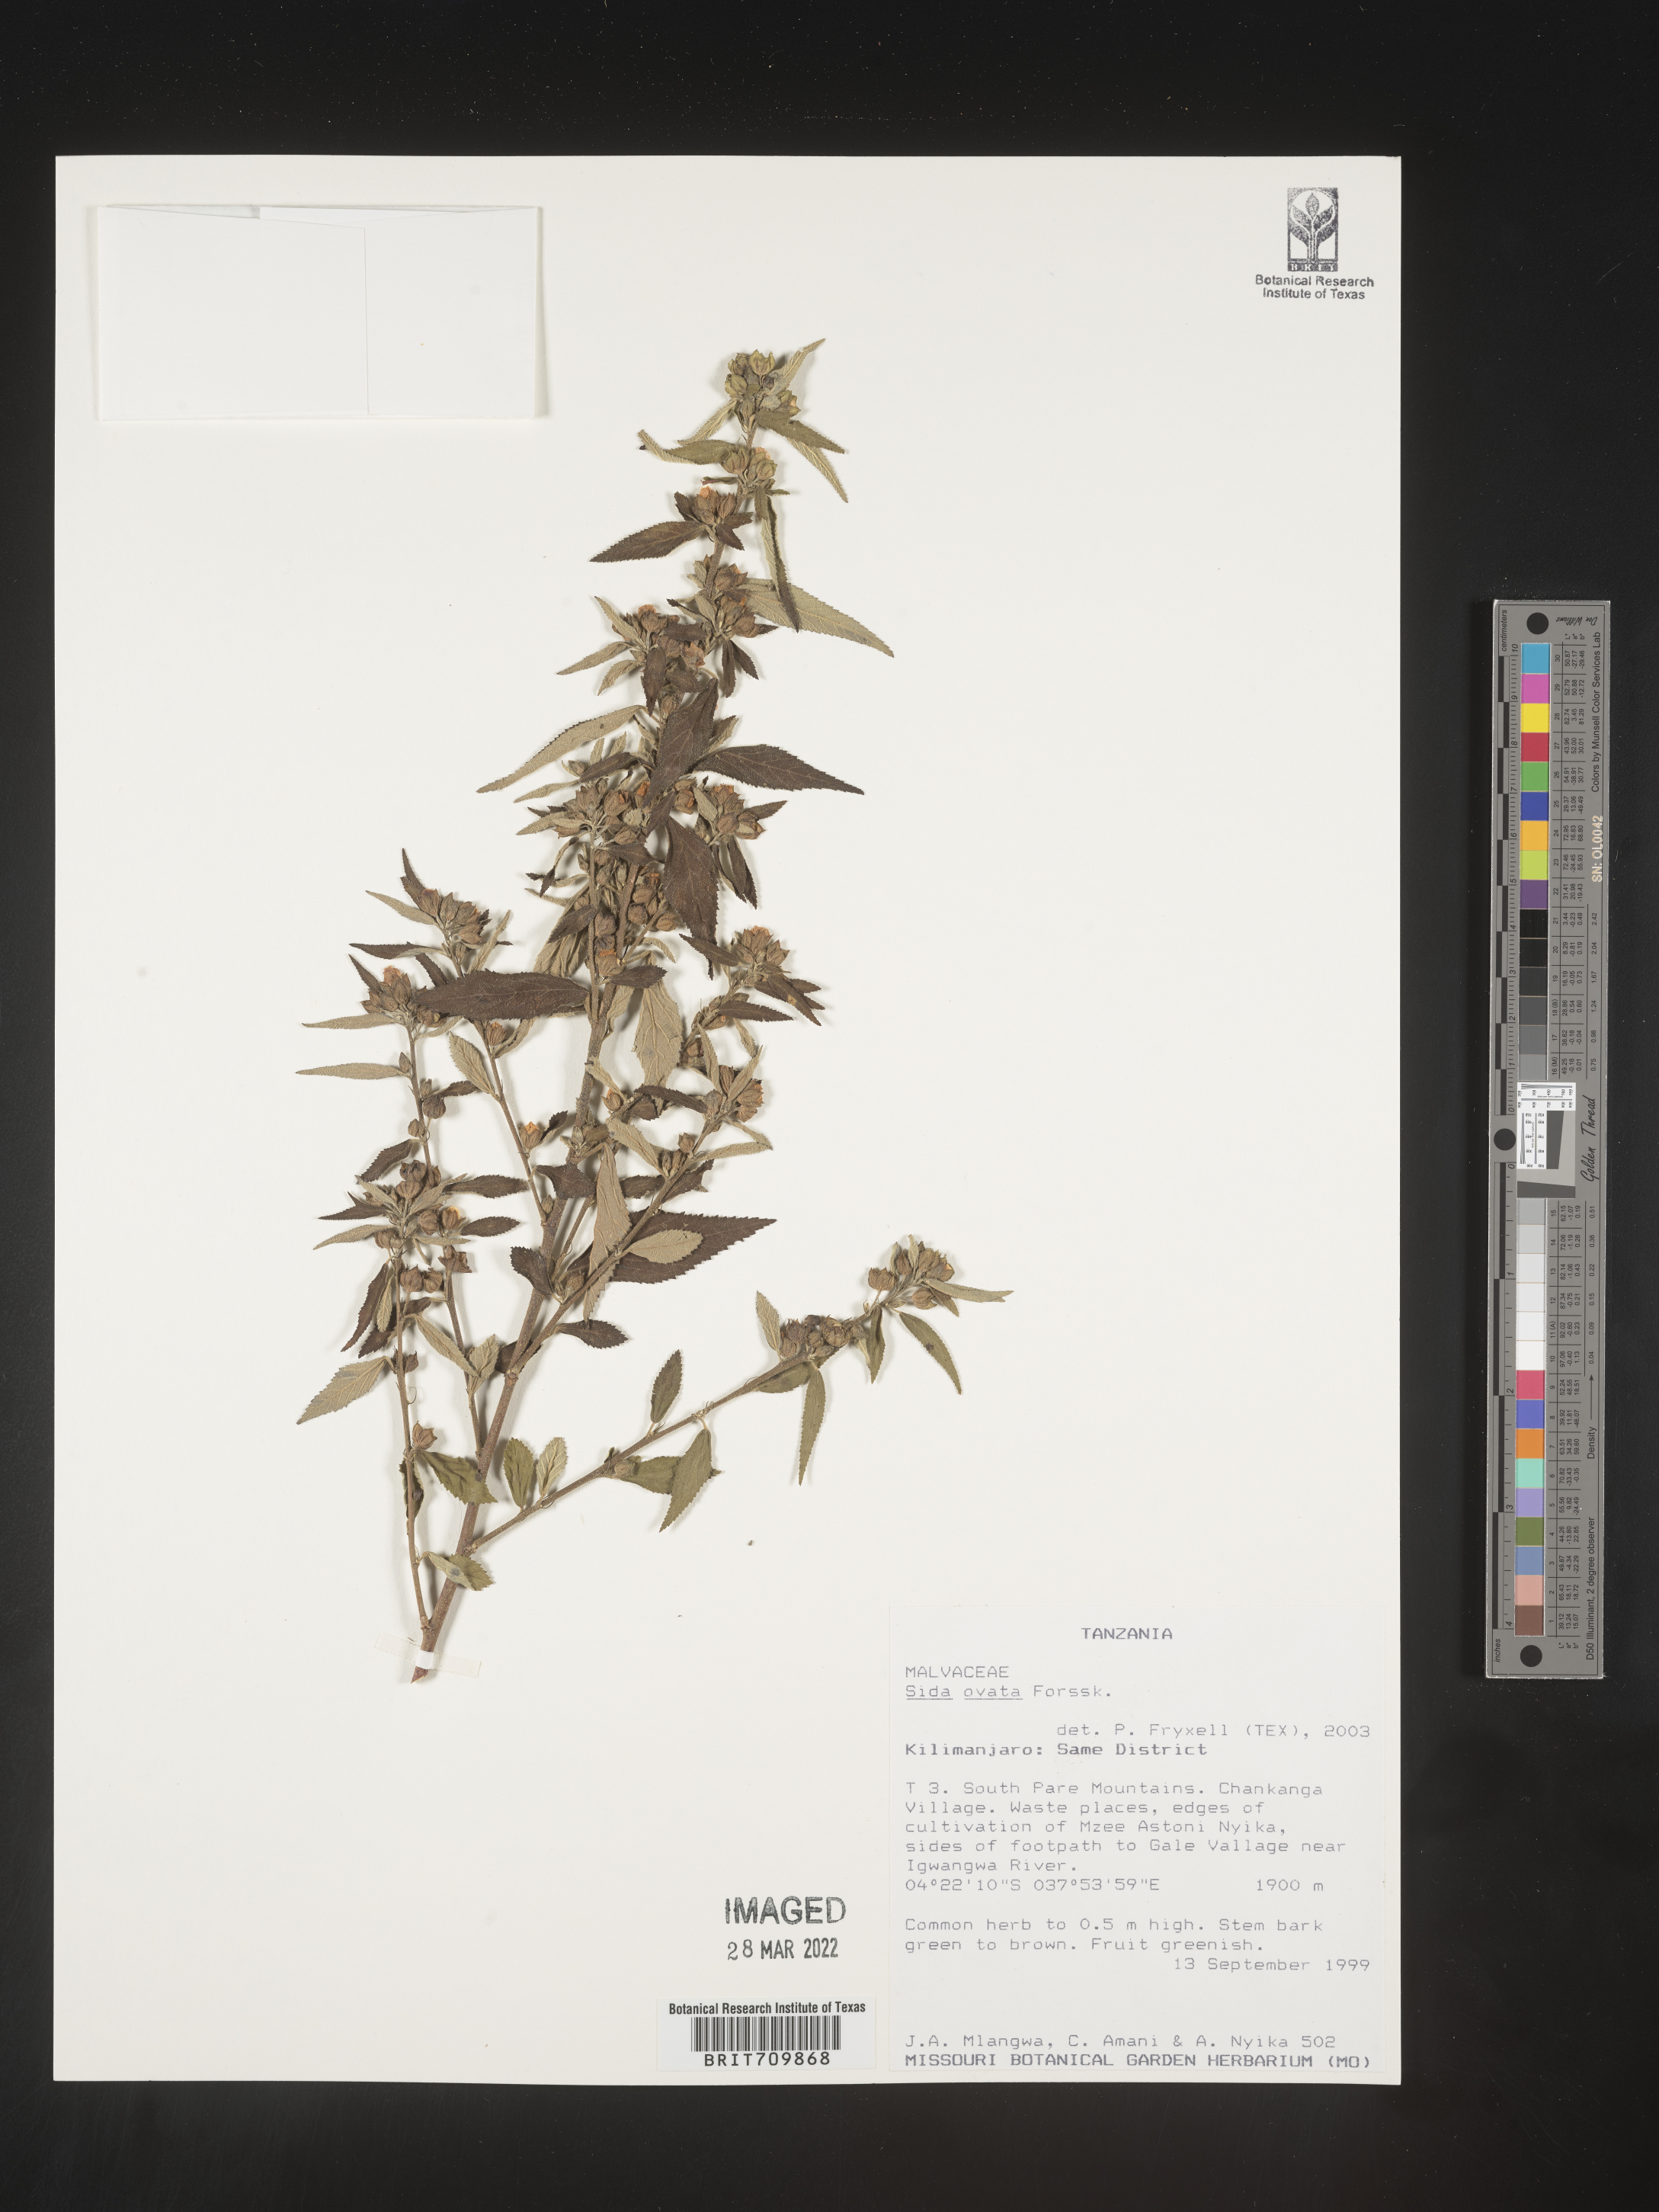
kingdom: Plantae
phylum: Tracheophyta
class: Magnoliopsida
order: Malvales
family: Malvaceae
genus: Sida
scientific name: Sida
